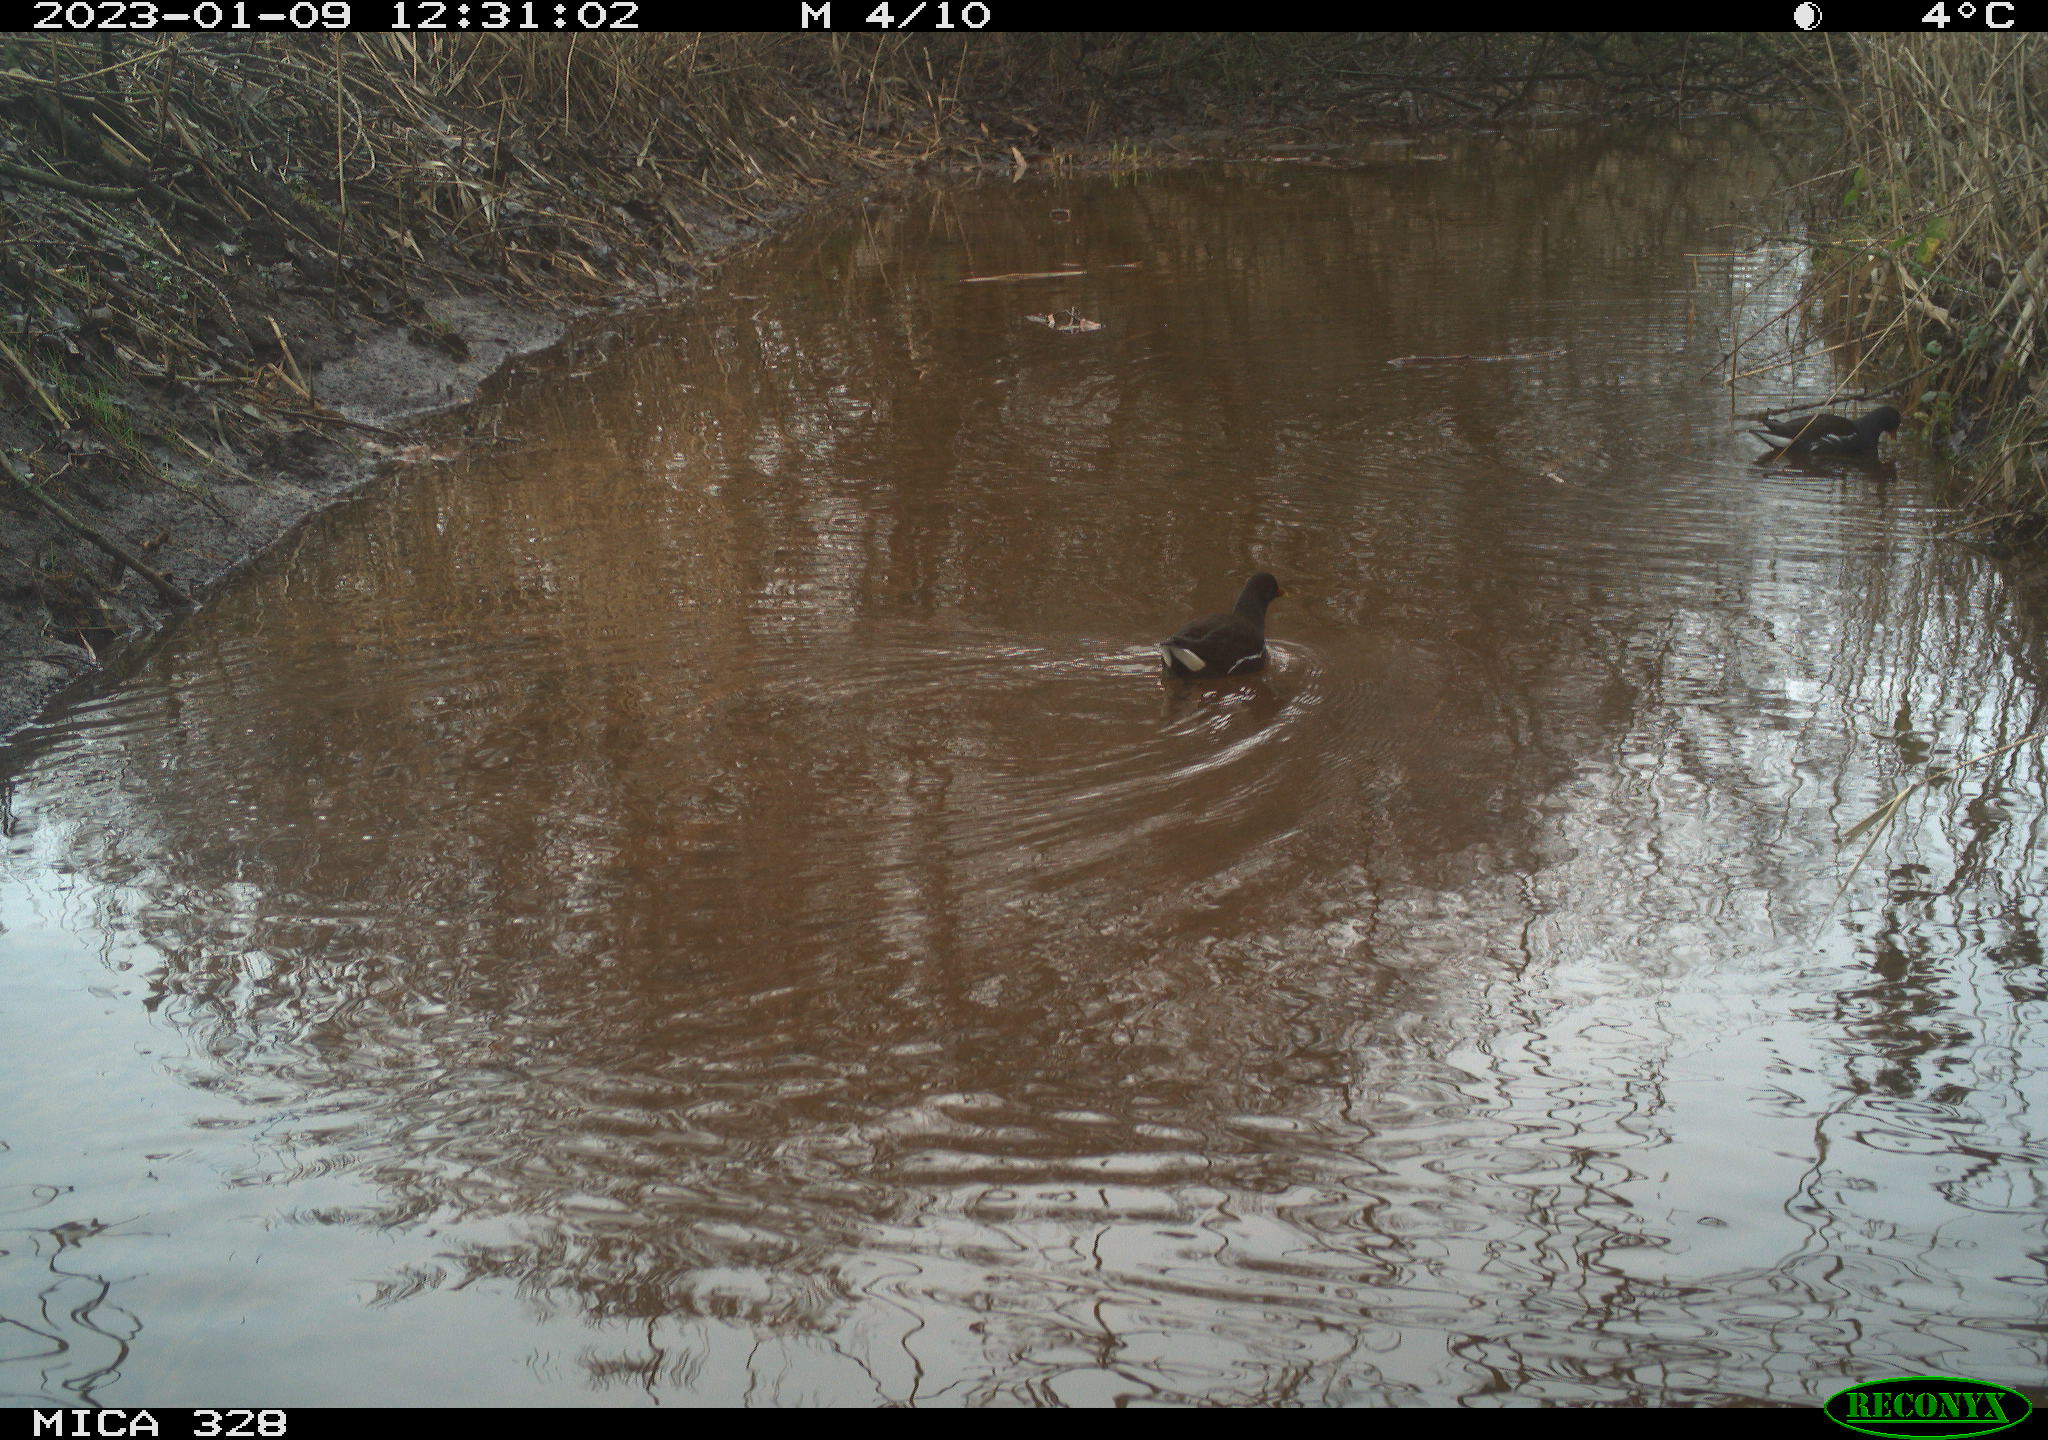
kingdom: Animalia
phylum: Chordata
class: Aves
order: Gruiformes
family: Rallidae
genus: Gallinula
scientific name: Gallinula chloropus
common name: Common moorhen
